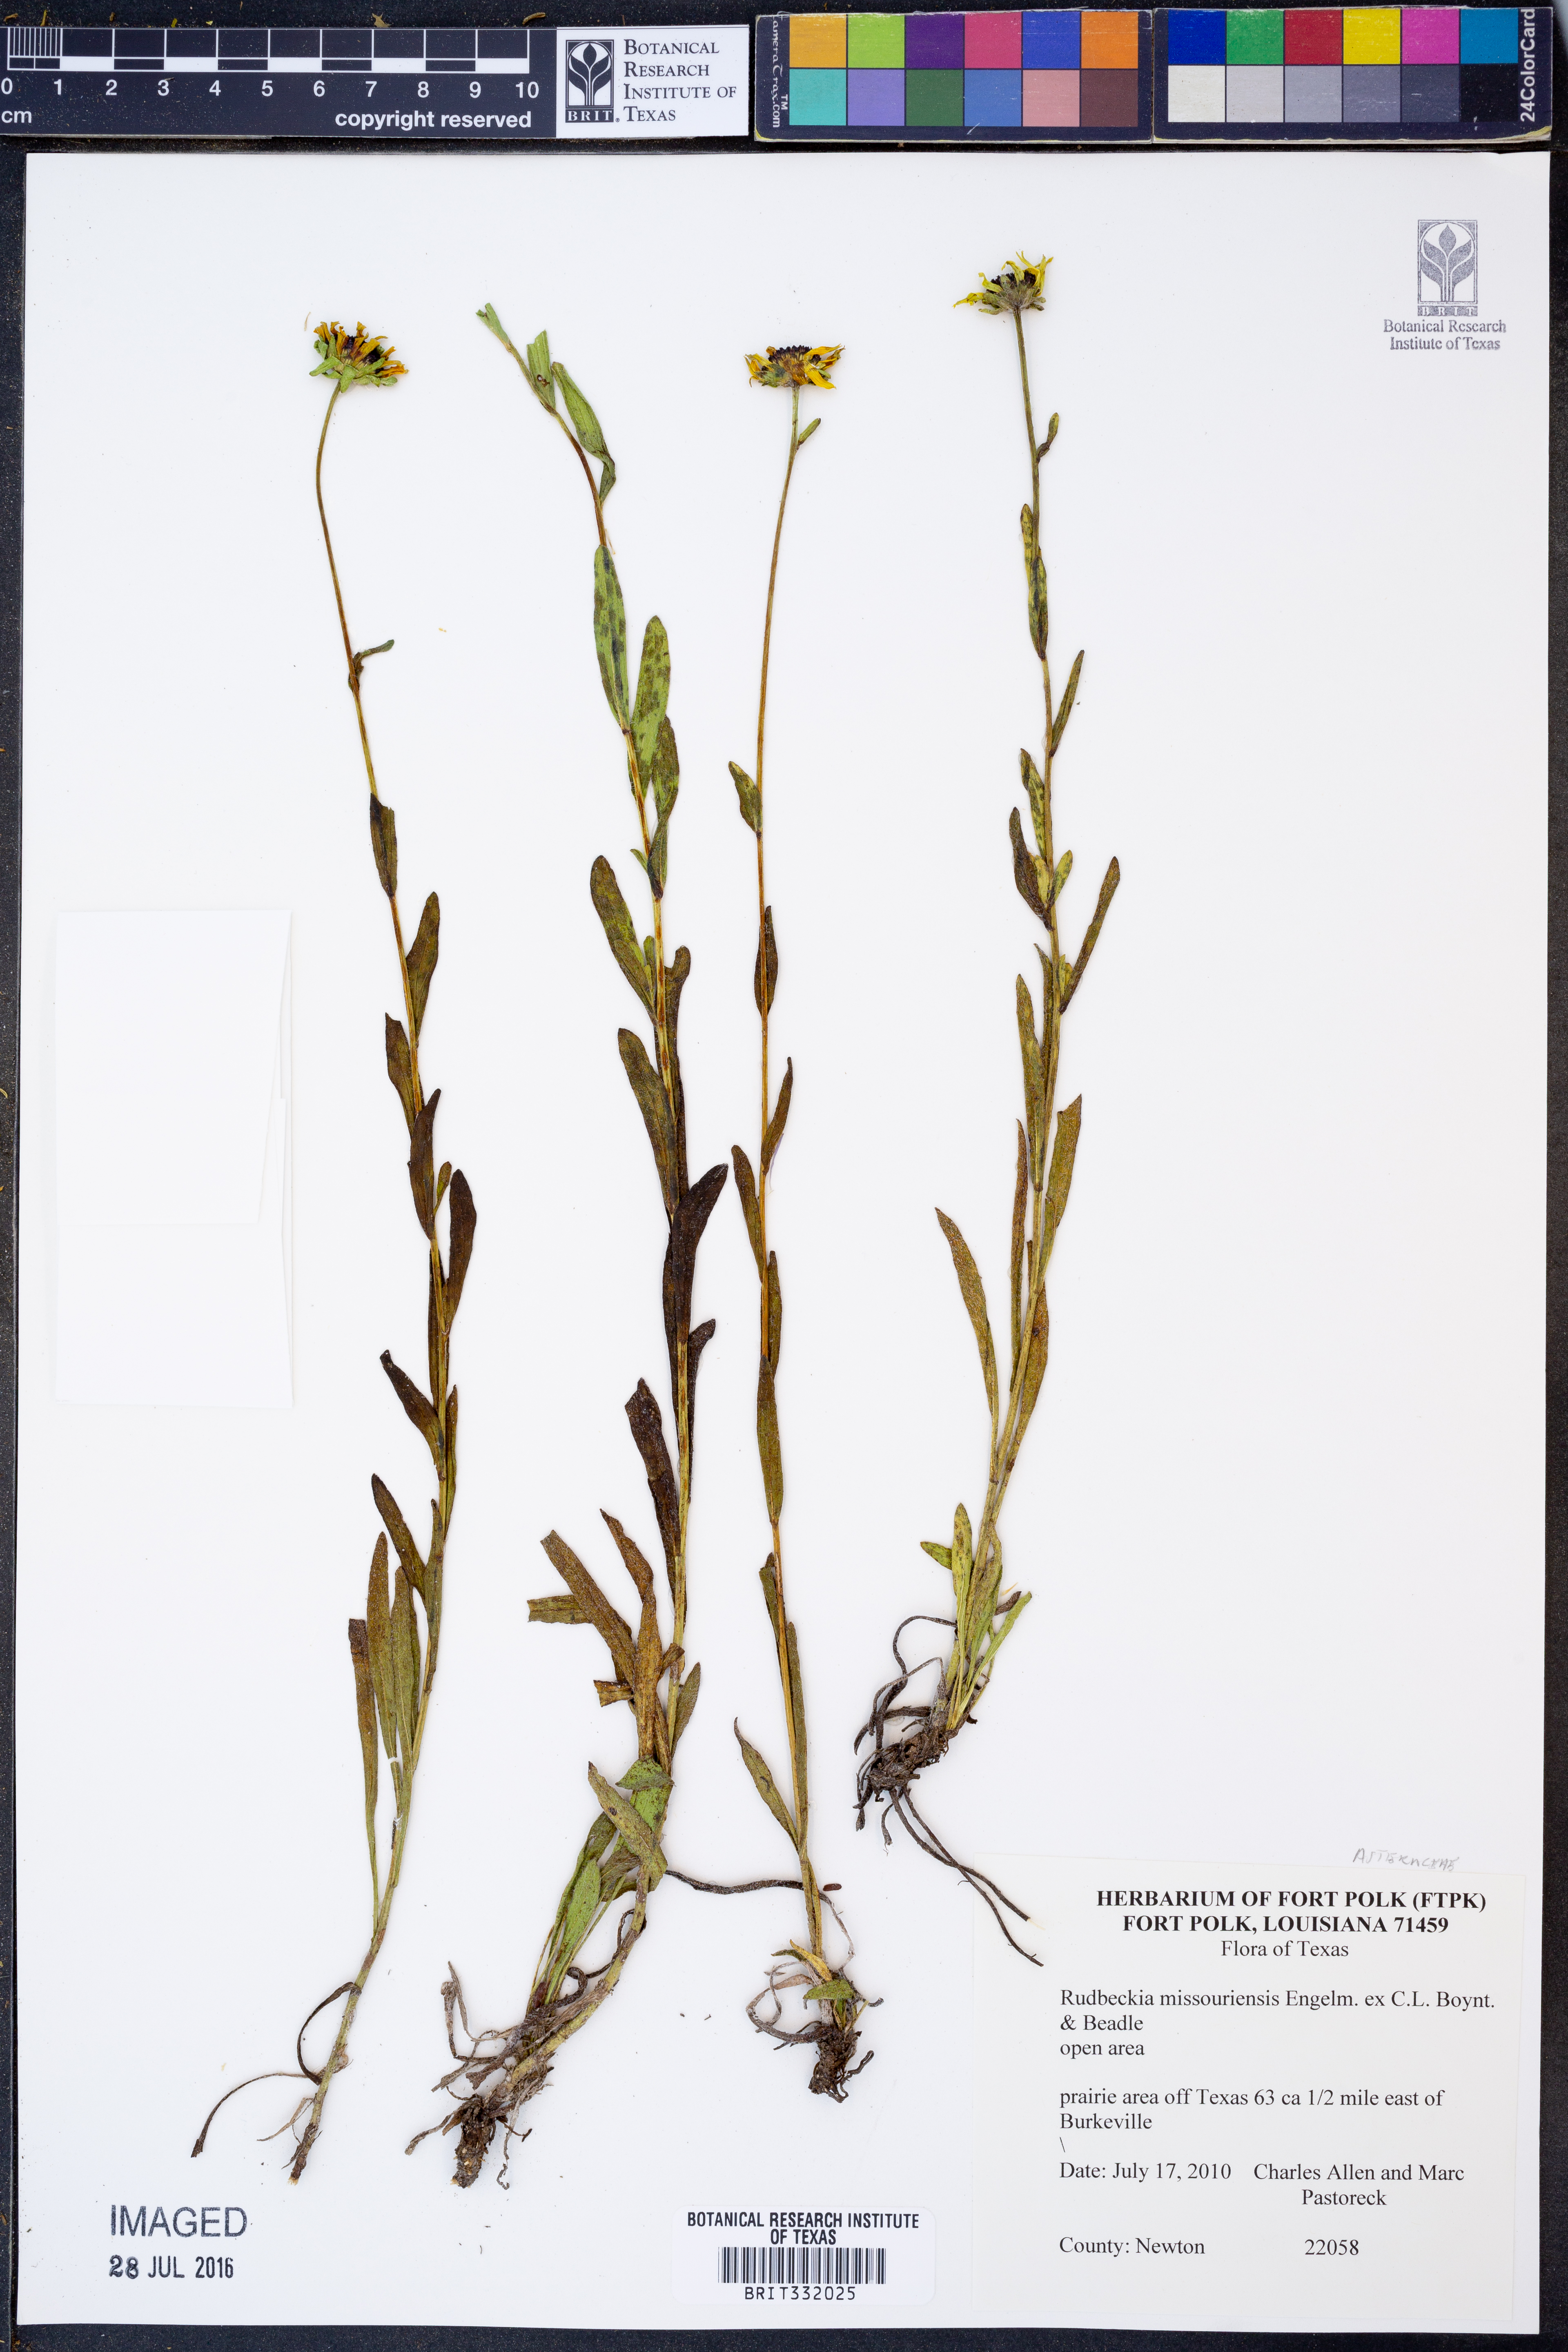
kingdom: Plantae
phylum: Tracheophyta
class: Magnoliopsida
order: Asterales
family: Asteraceae
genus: Rudbeckia
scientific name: Rudbeckia missouriensis
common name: Missouri coneflower
